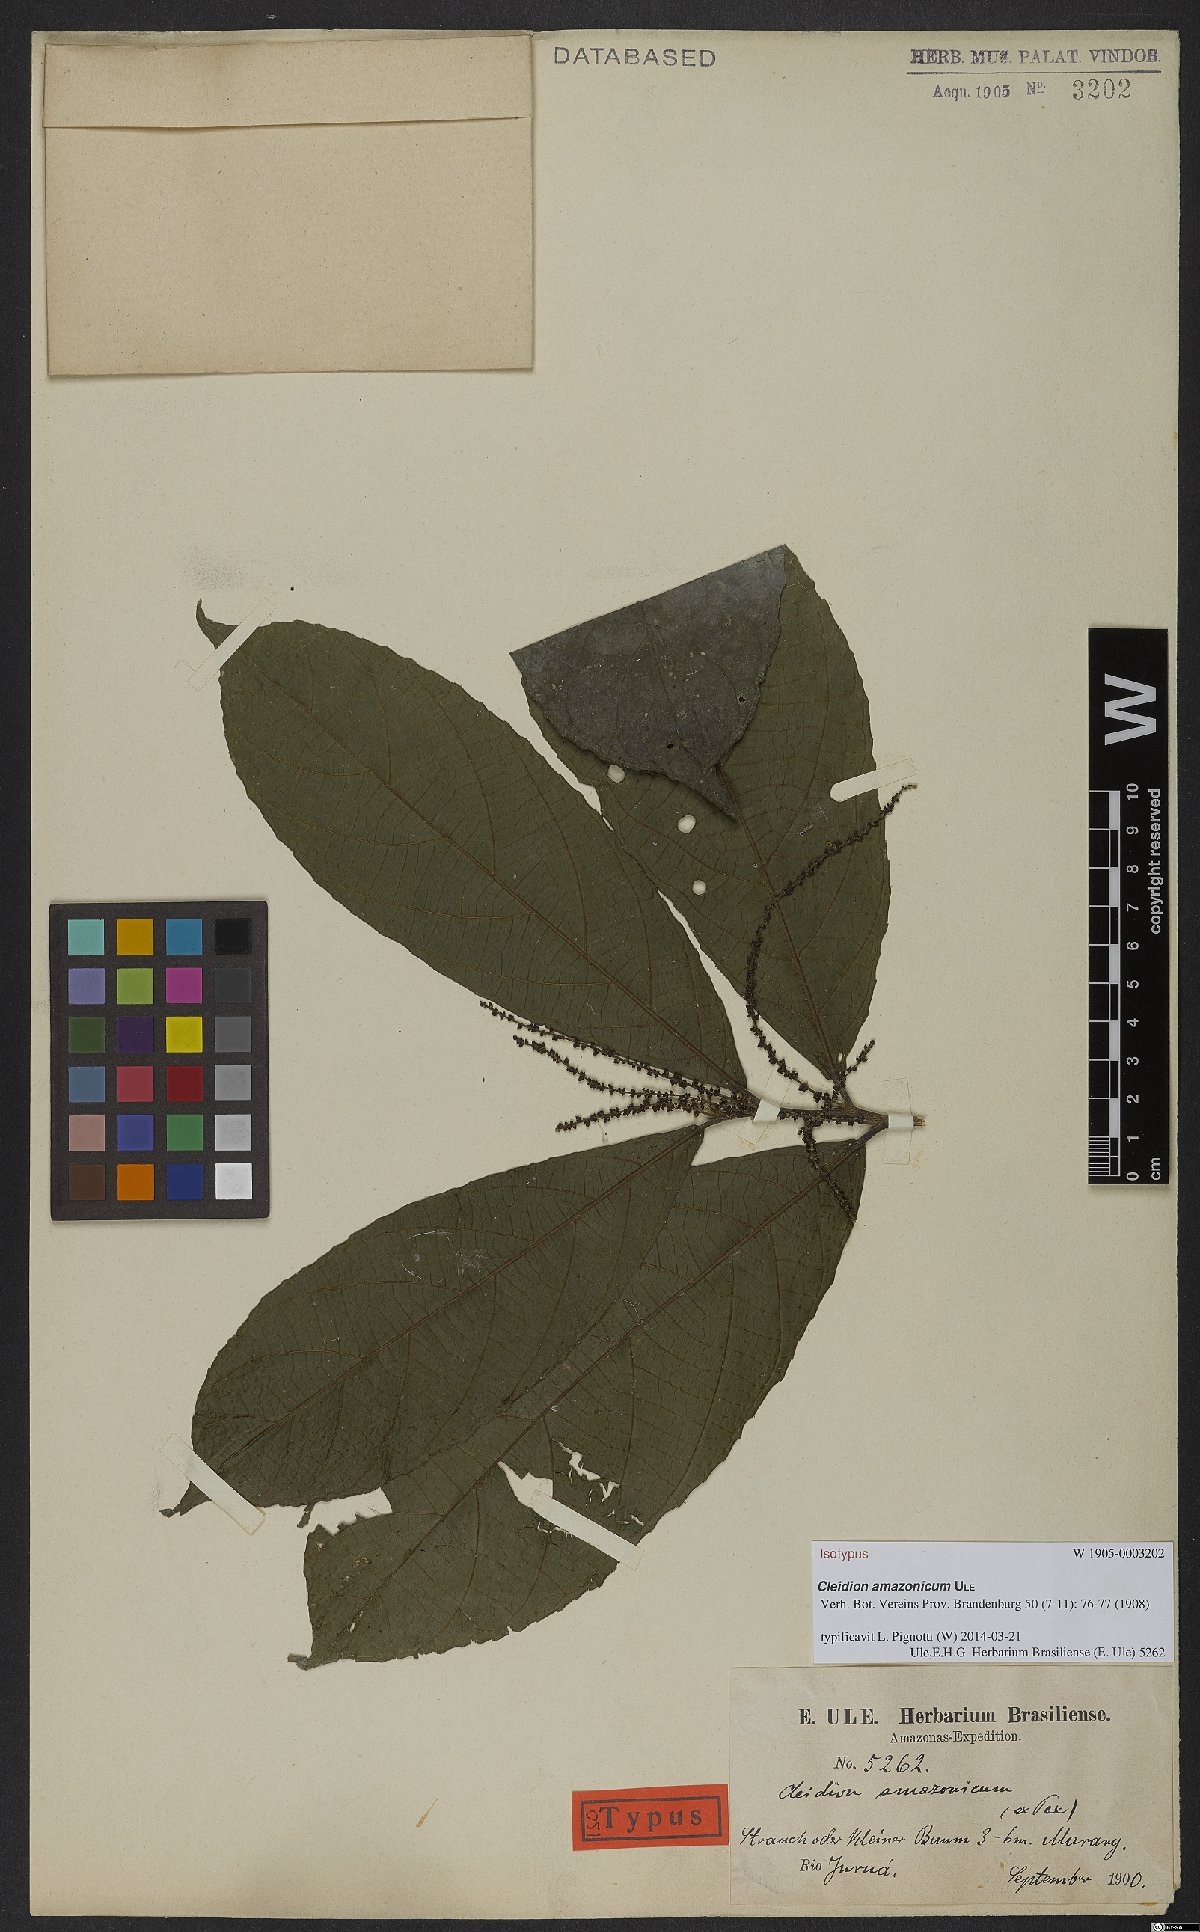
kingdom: Plantae
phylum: Tracheophyta
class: Magnoliopsida
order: Malpighiales
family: Euphorbiaceae
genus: Cleidion
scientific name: Cleidion amazonicum
